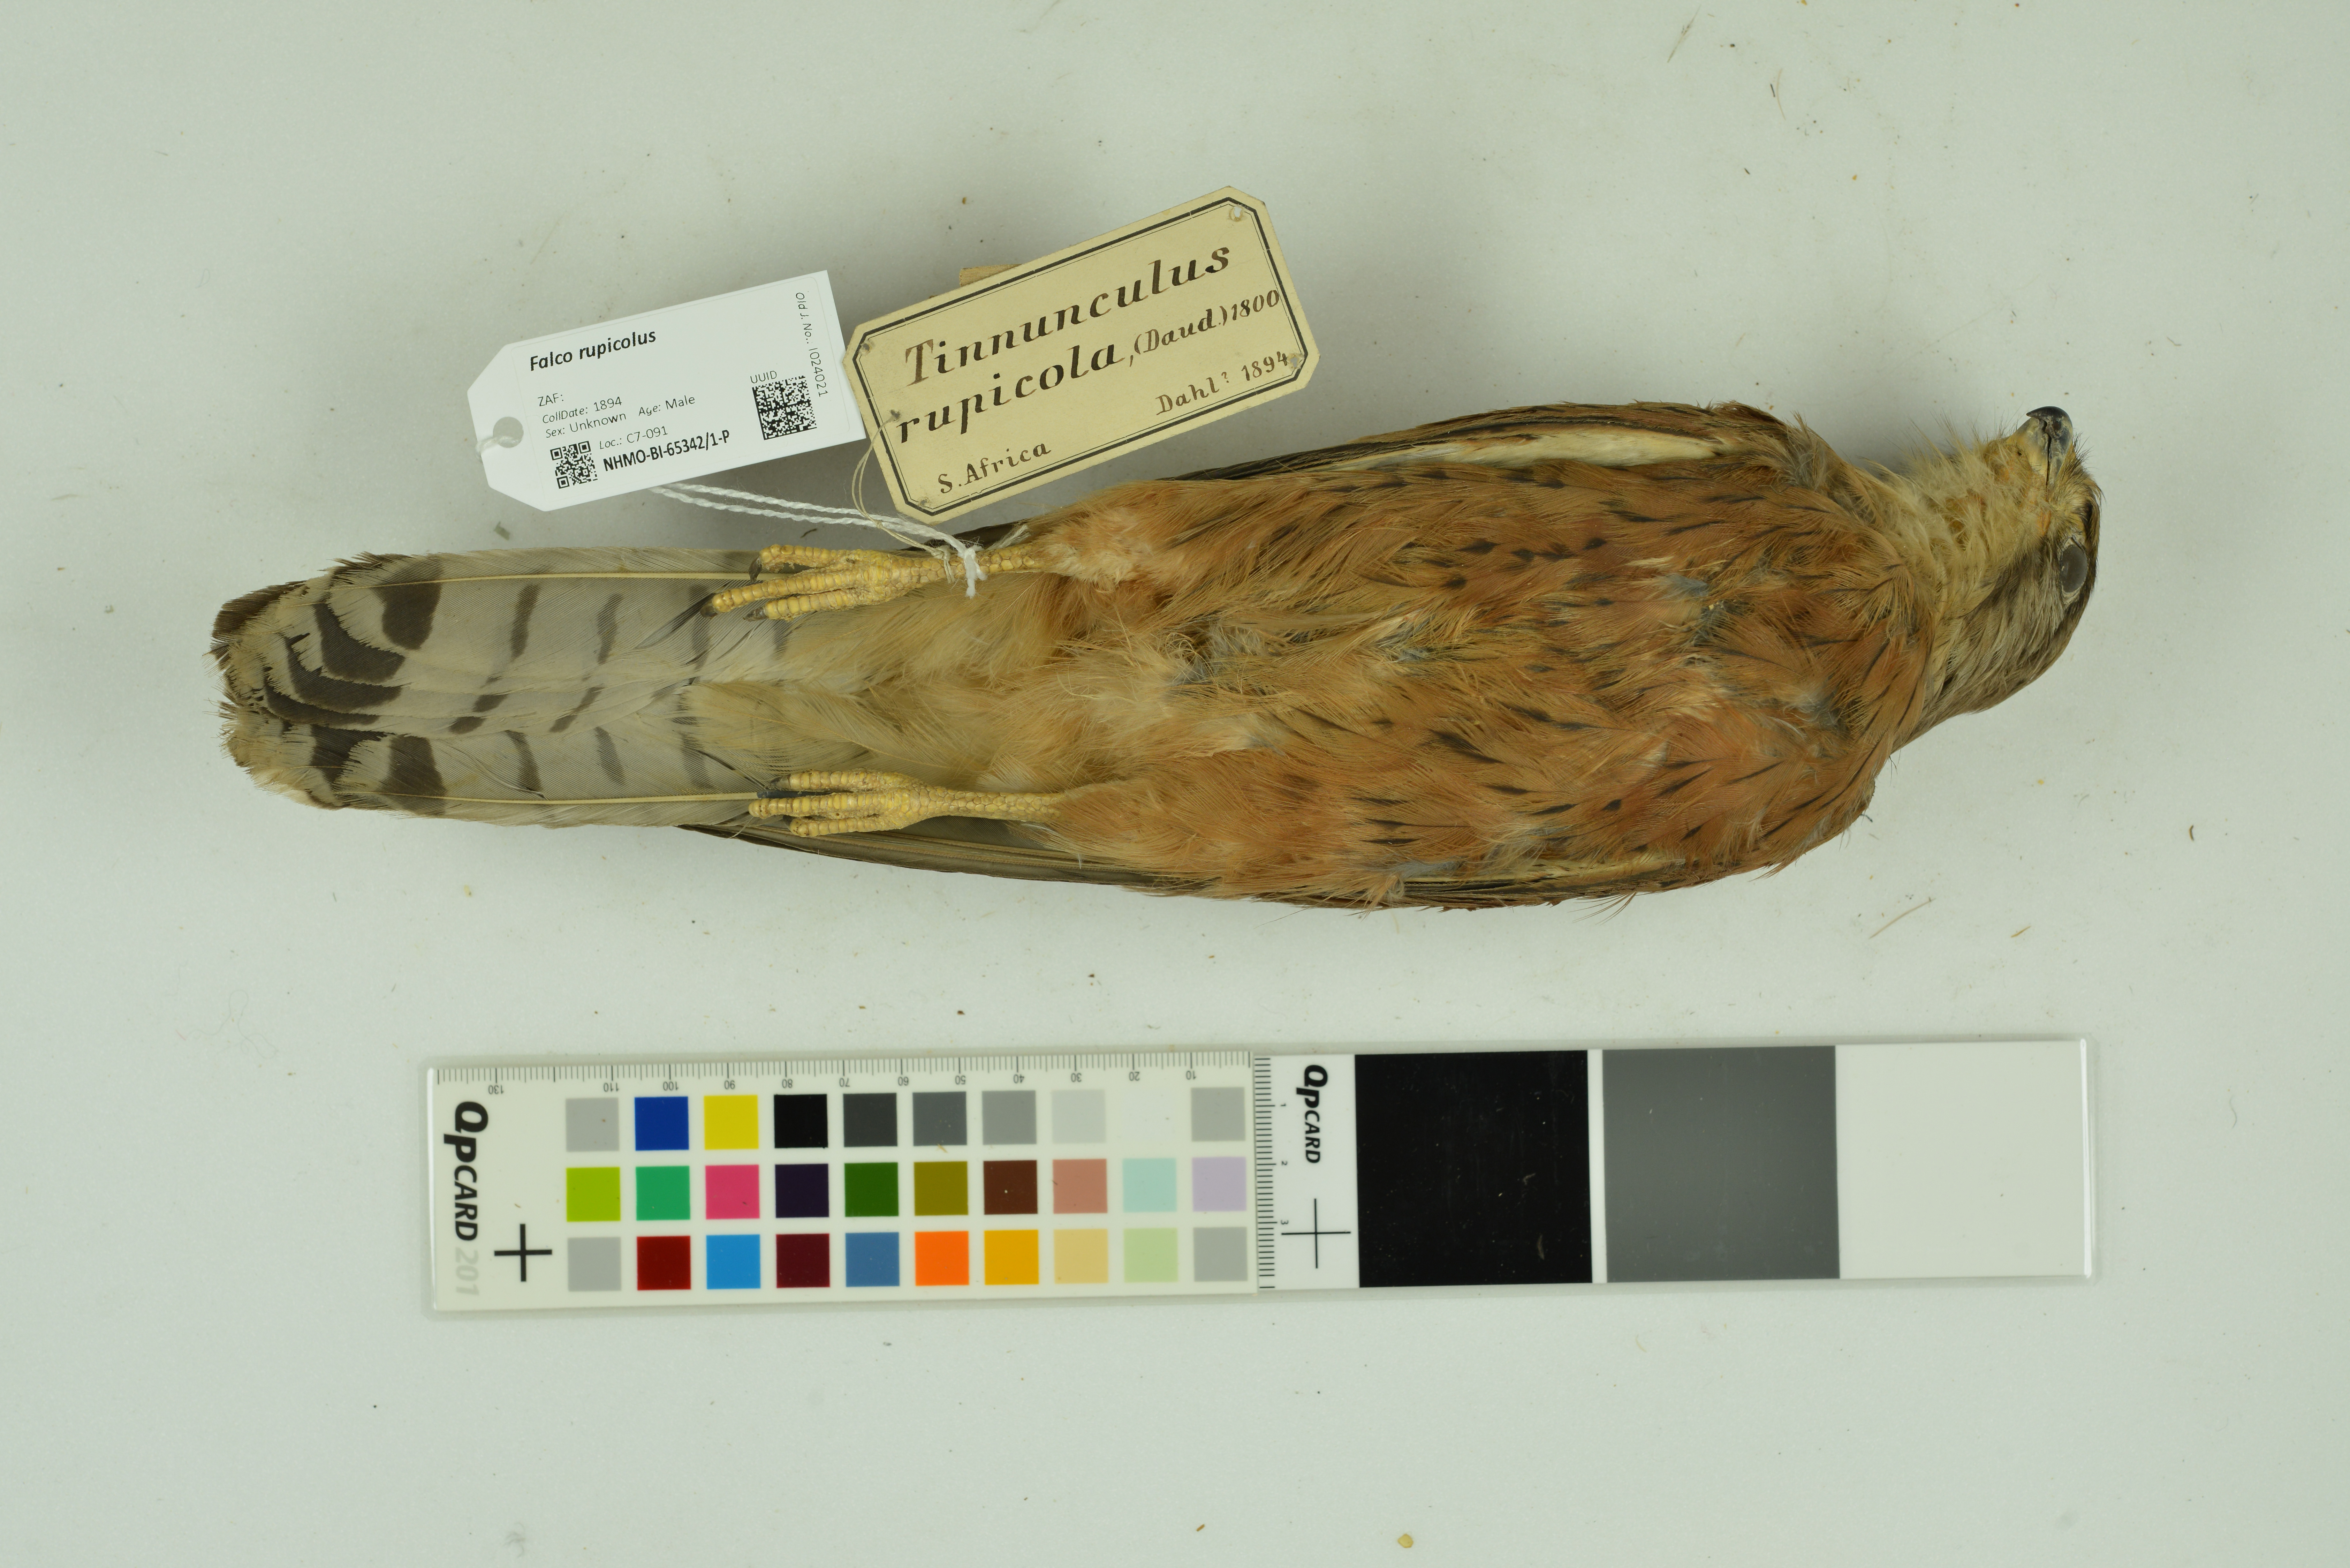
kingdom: Animalia
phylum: Chordata
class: Aves
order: Falconiformes
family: Falconidae
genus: Falco
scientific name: Falco rupicolus
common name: Rock kestrel
